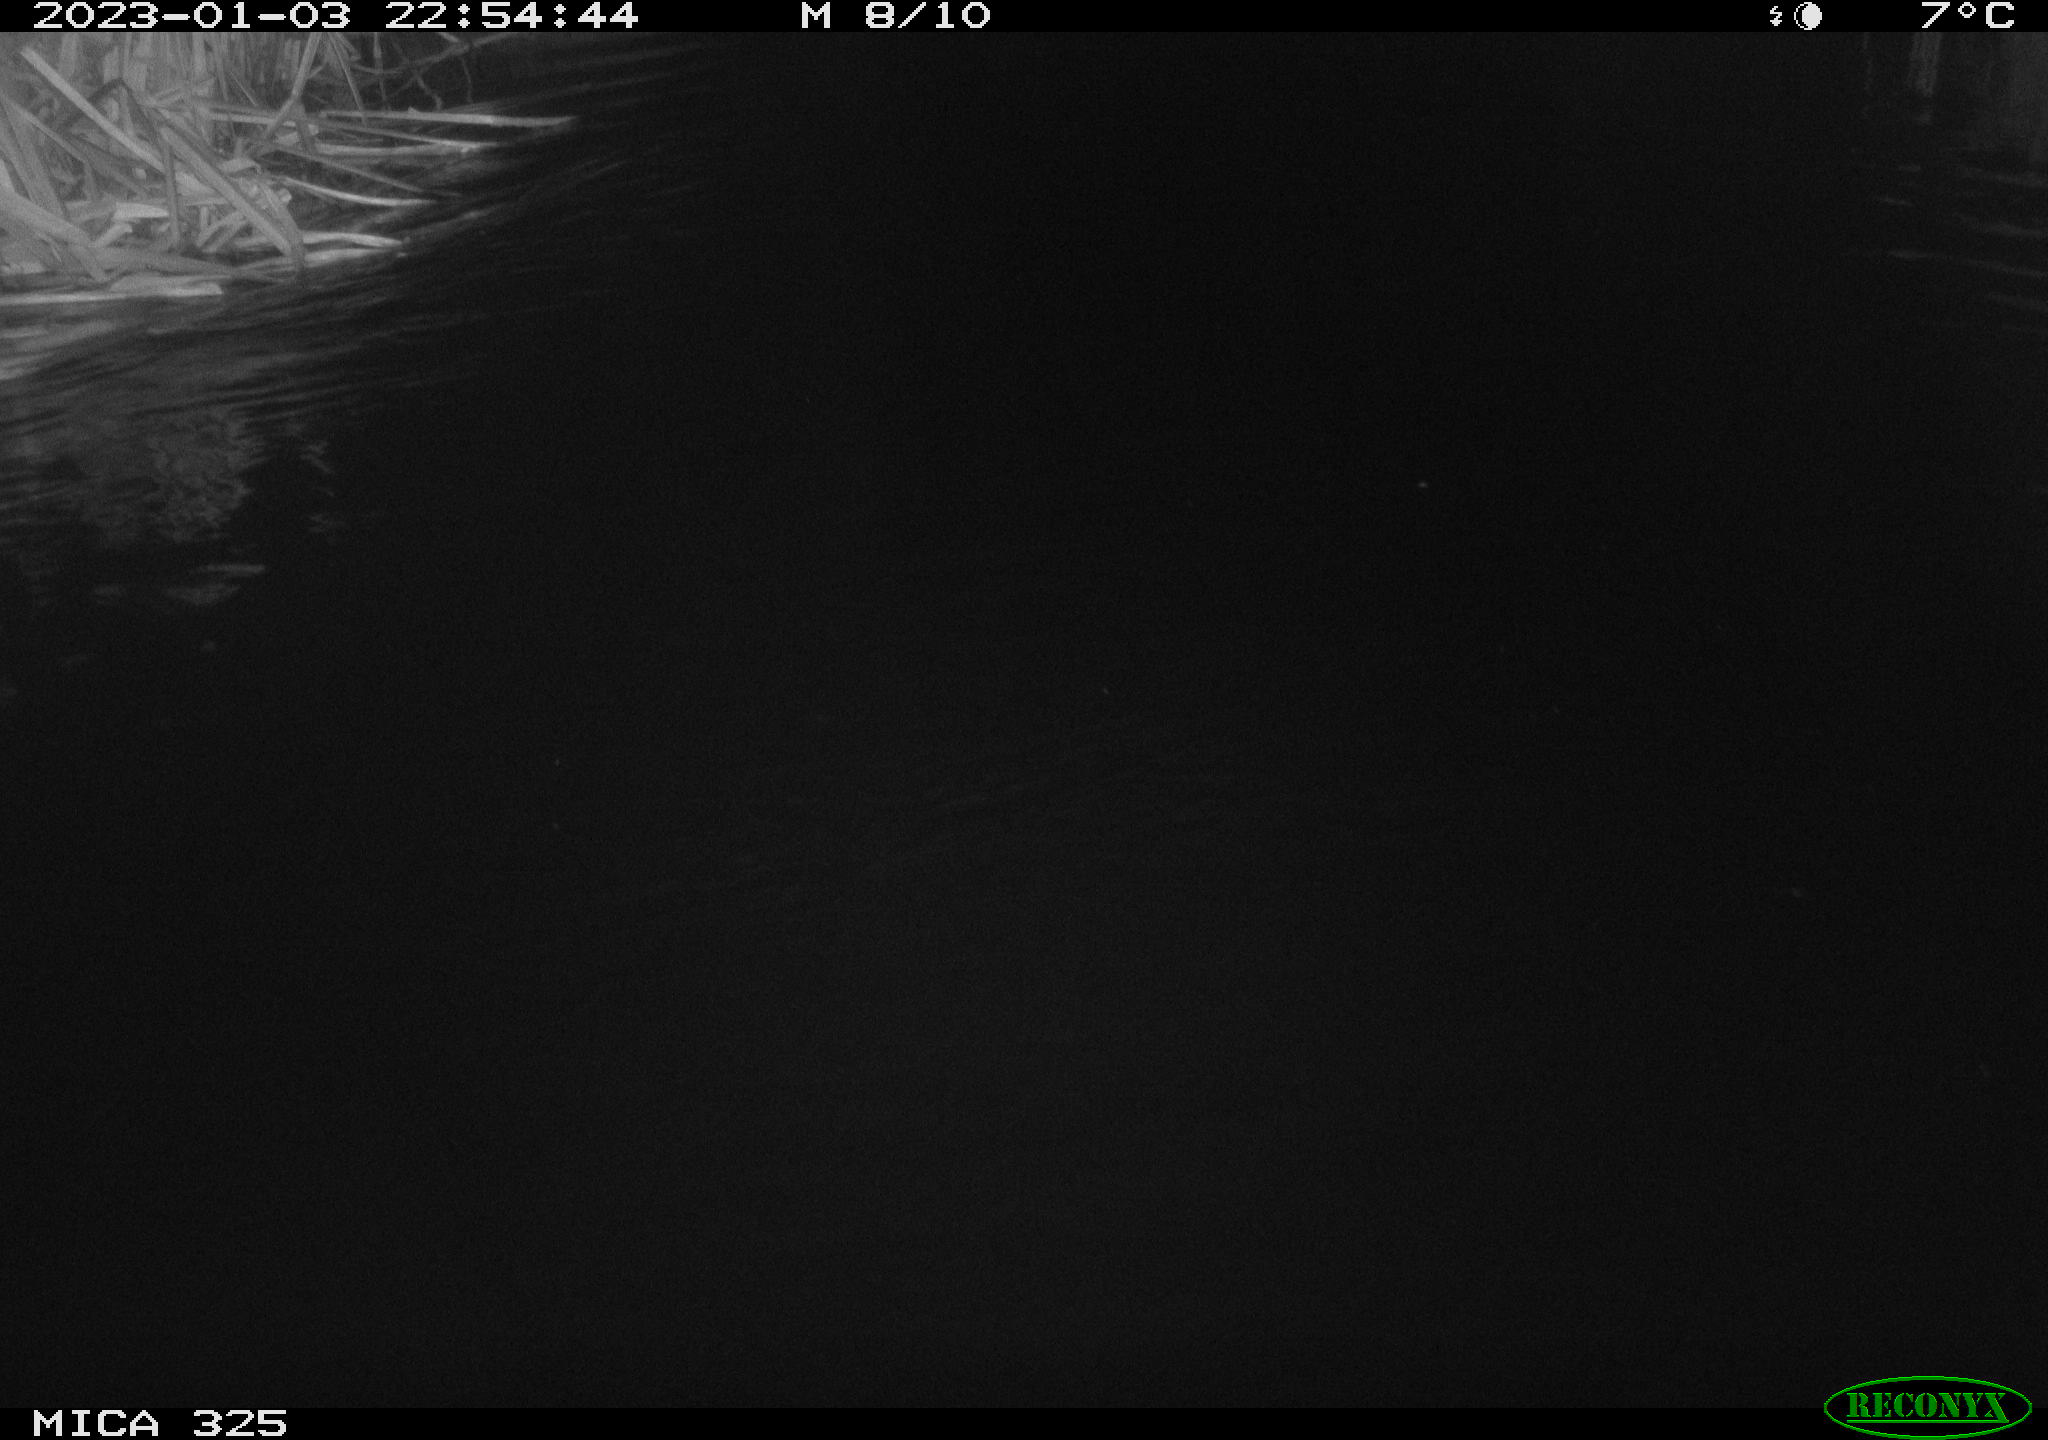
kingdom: Animalia
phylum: Chordata
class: Mammalia
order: Rodentia
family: Myocastoridae
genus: Myocastor
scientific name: Myocastor coypus
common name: Coypu
